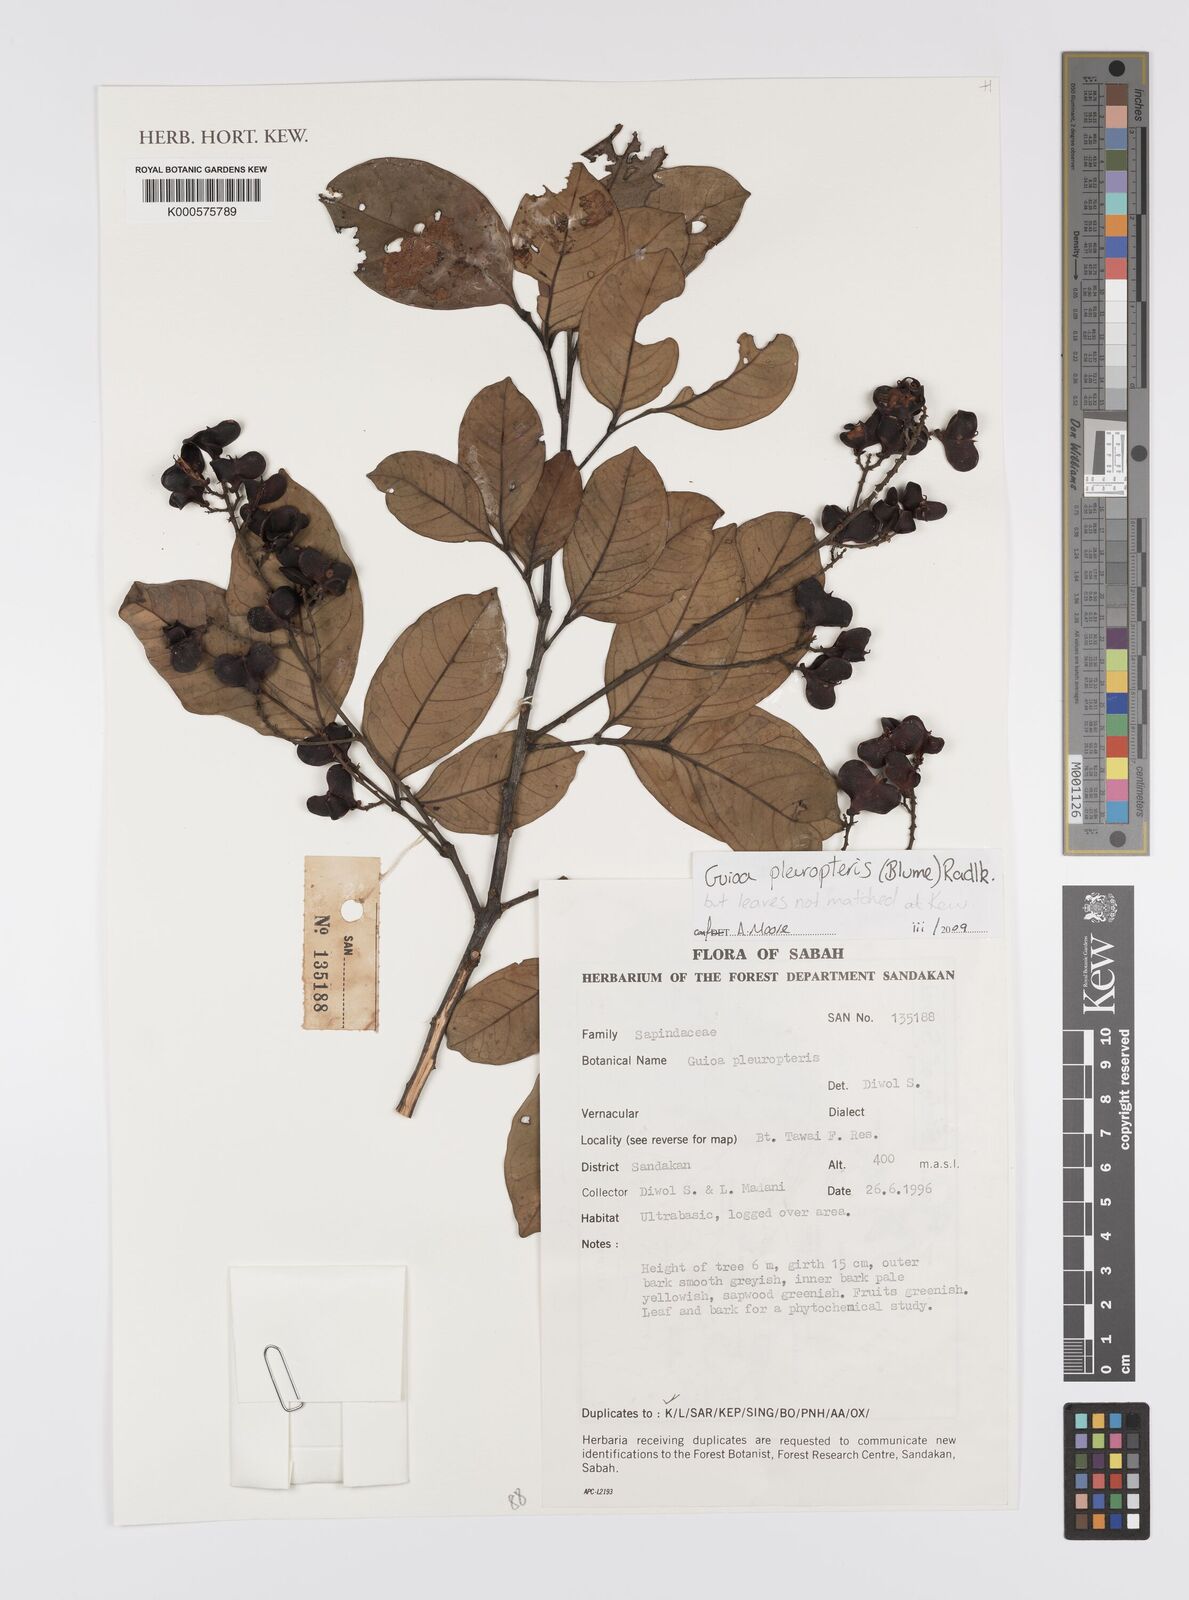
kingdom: Plantae
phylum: Tracheophyta
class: Magnoliopsida
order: Sapindales
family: Sapindaceae
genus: Guioa
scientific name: Guioa pleuropteris
